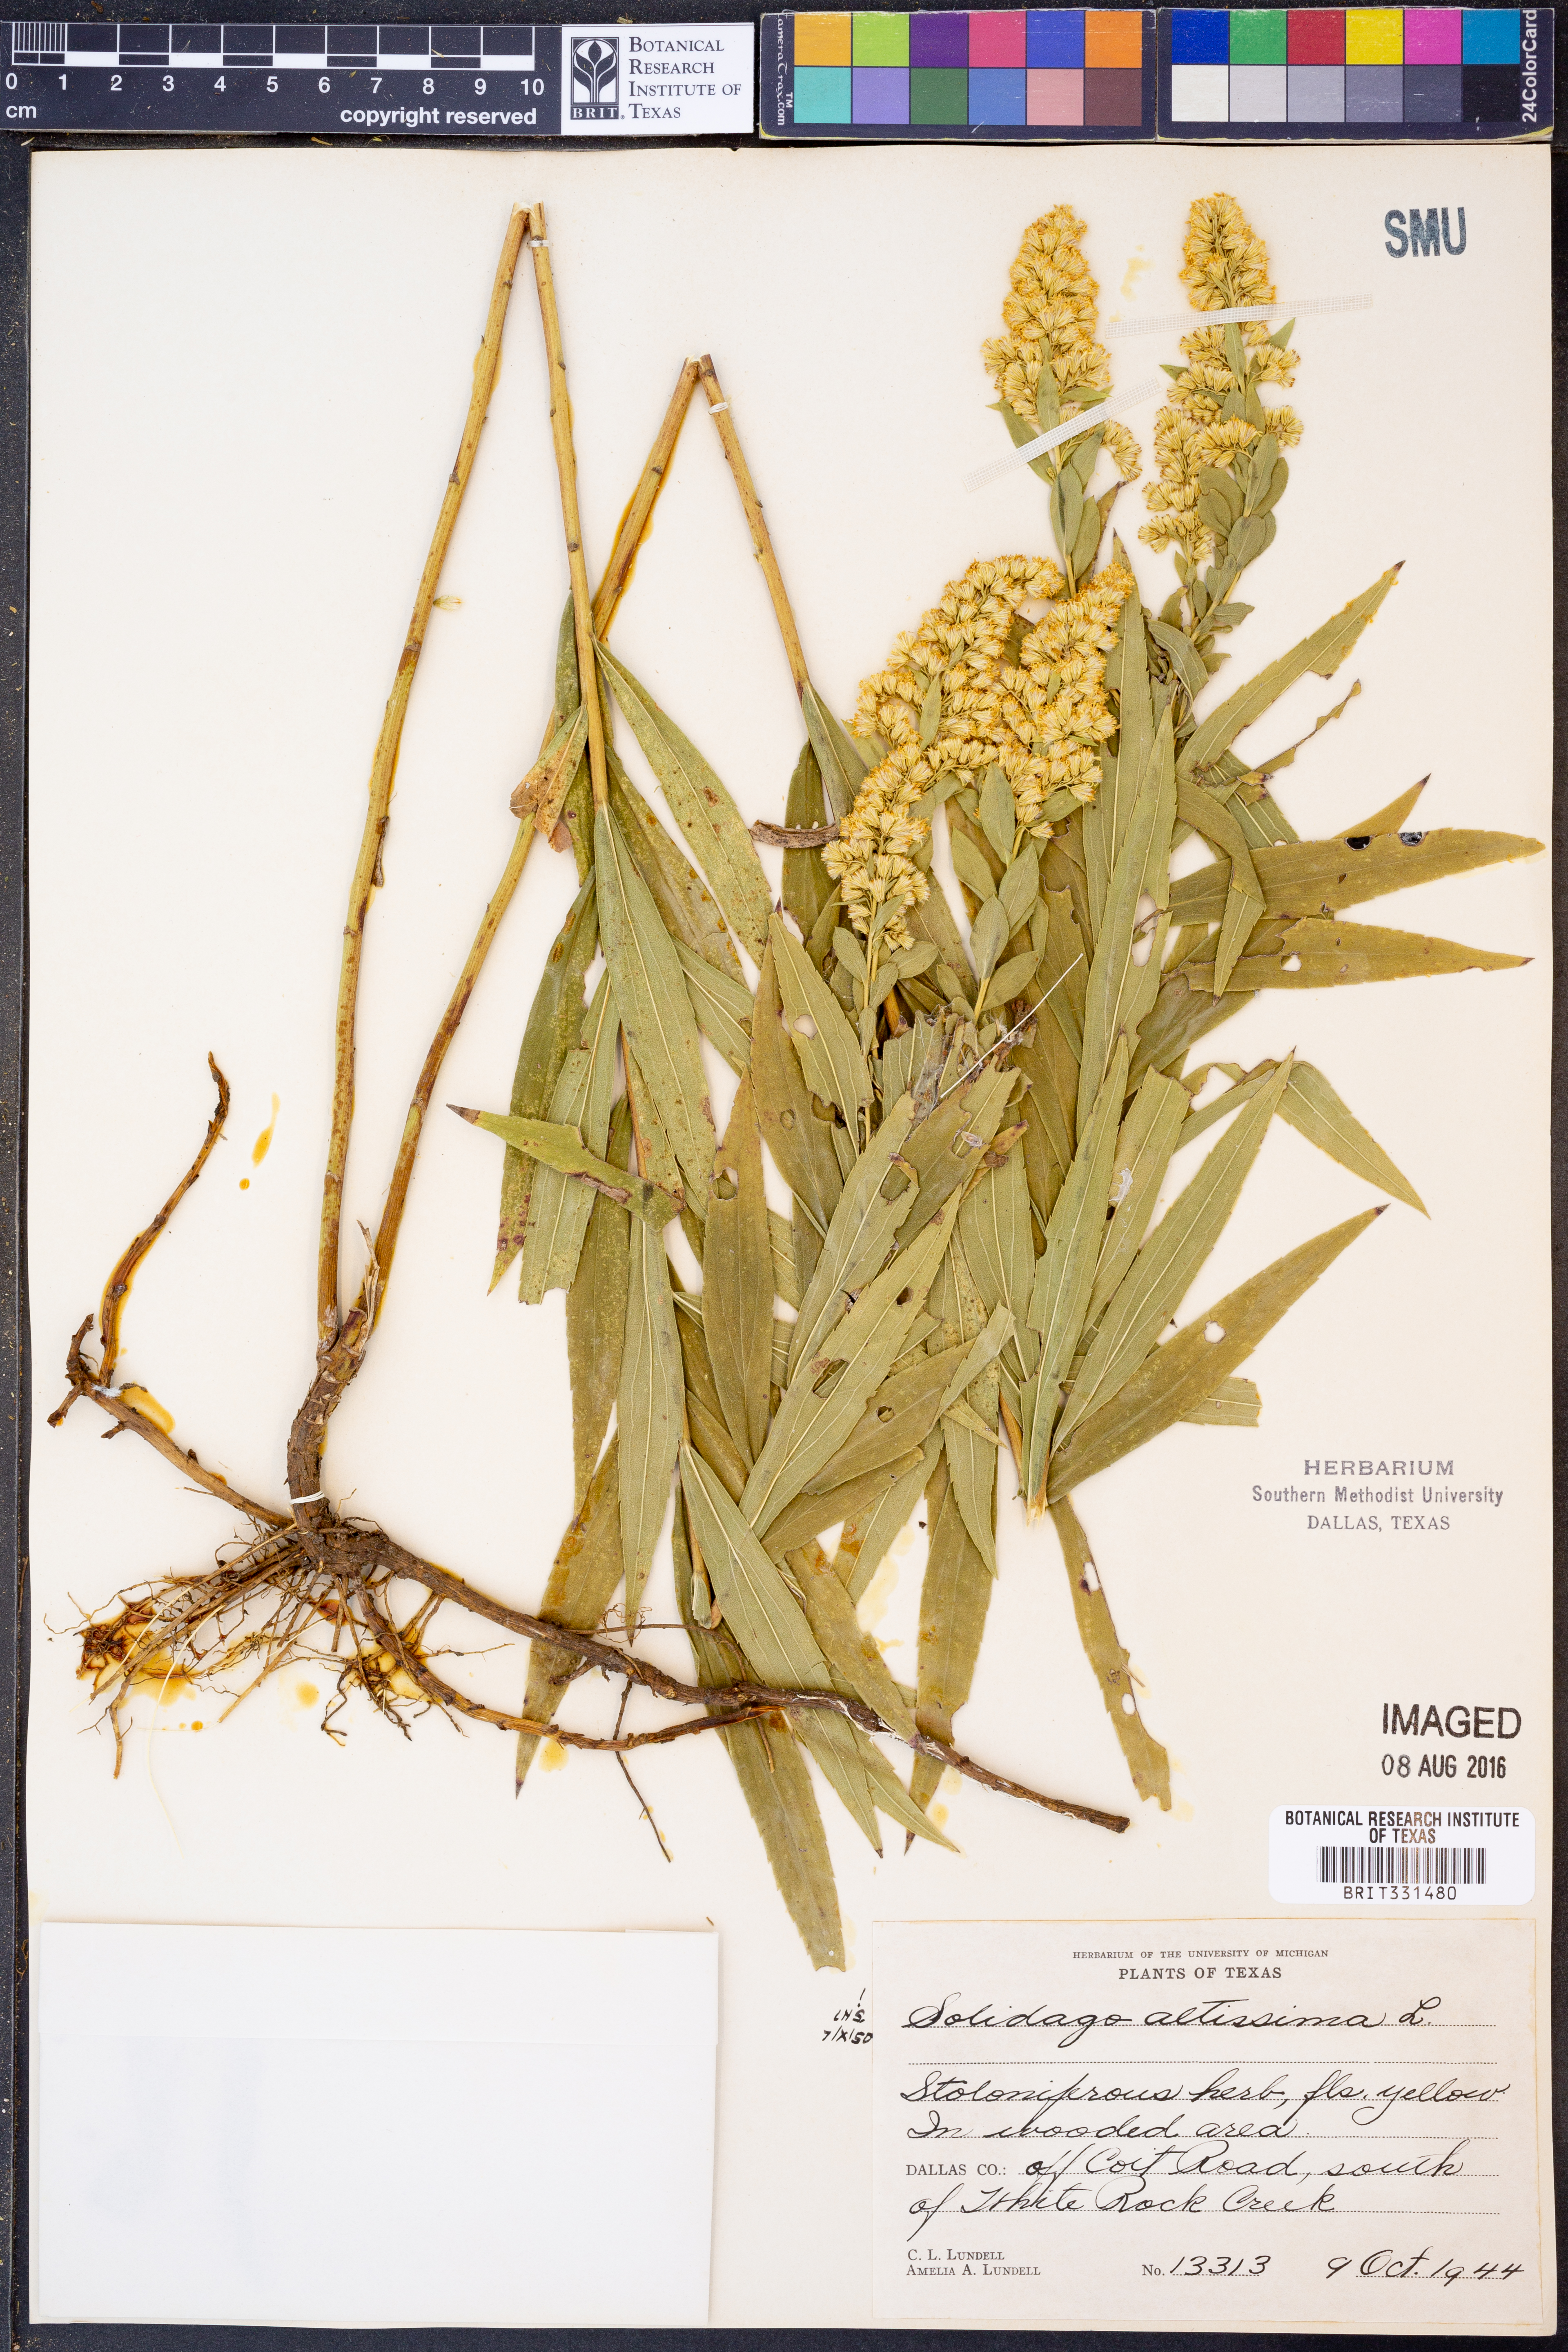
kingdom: Plantae
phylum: Tracheophyta
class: Magnoliopsida
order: Asterales
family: Asteraceae
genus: Solidago
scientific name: Solidago altissima
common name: Late goldenrod
